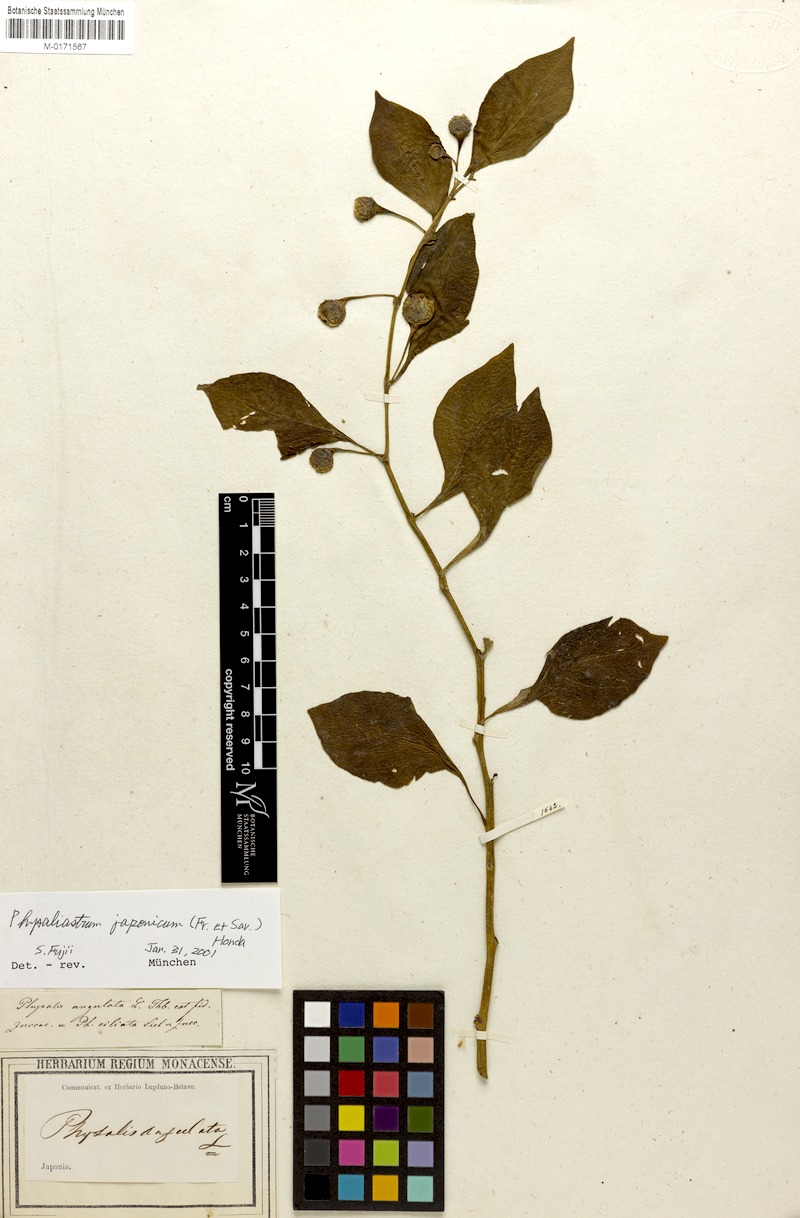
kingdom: Plantae
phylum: Tracheophyta
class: Magnoliopsida
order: Solanales
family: Solanaceae
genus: Physaliastrum
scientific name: Physaliastrum japonicum
